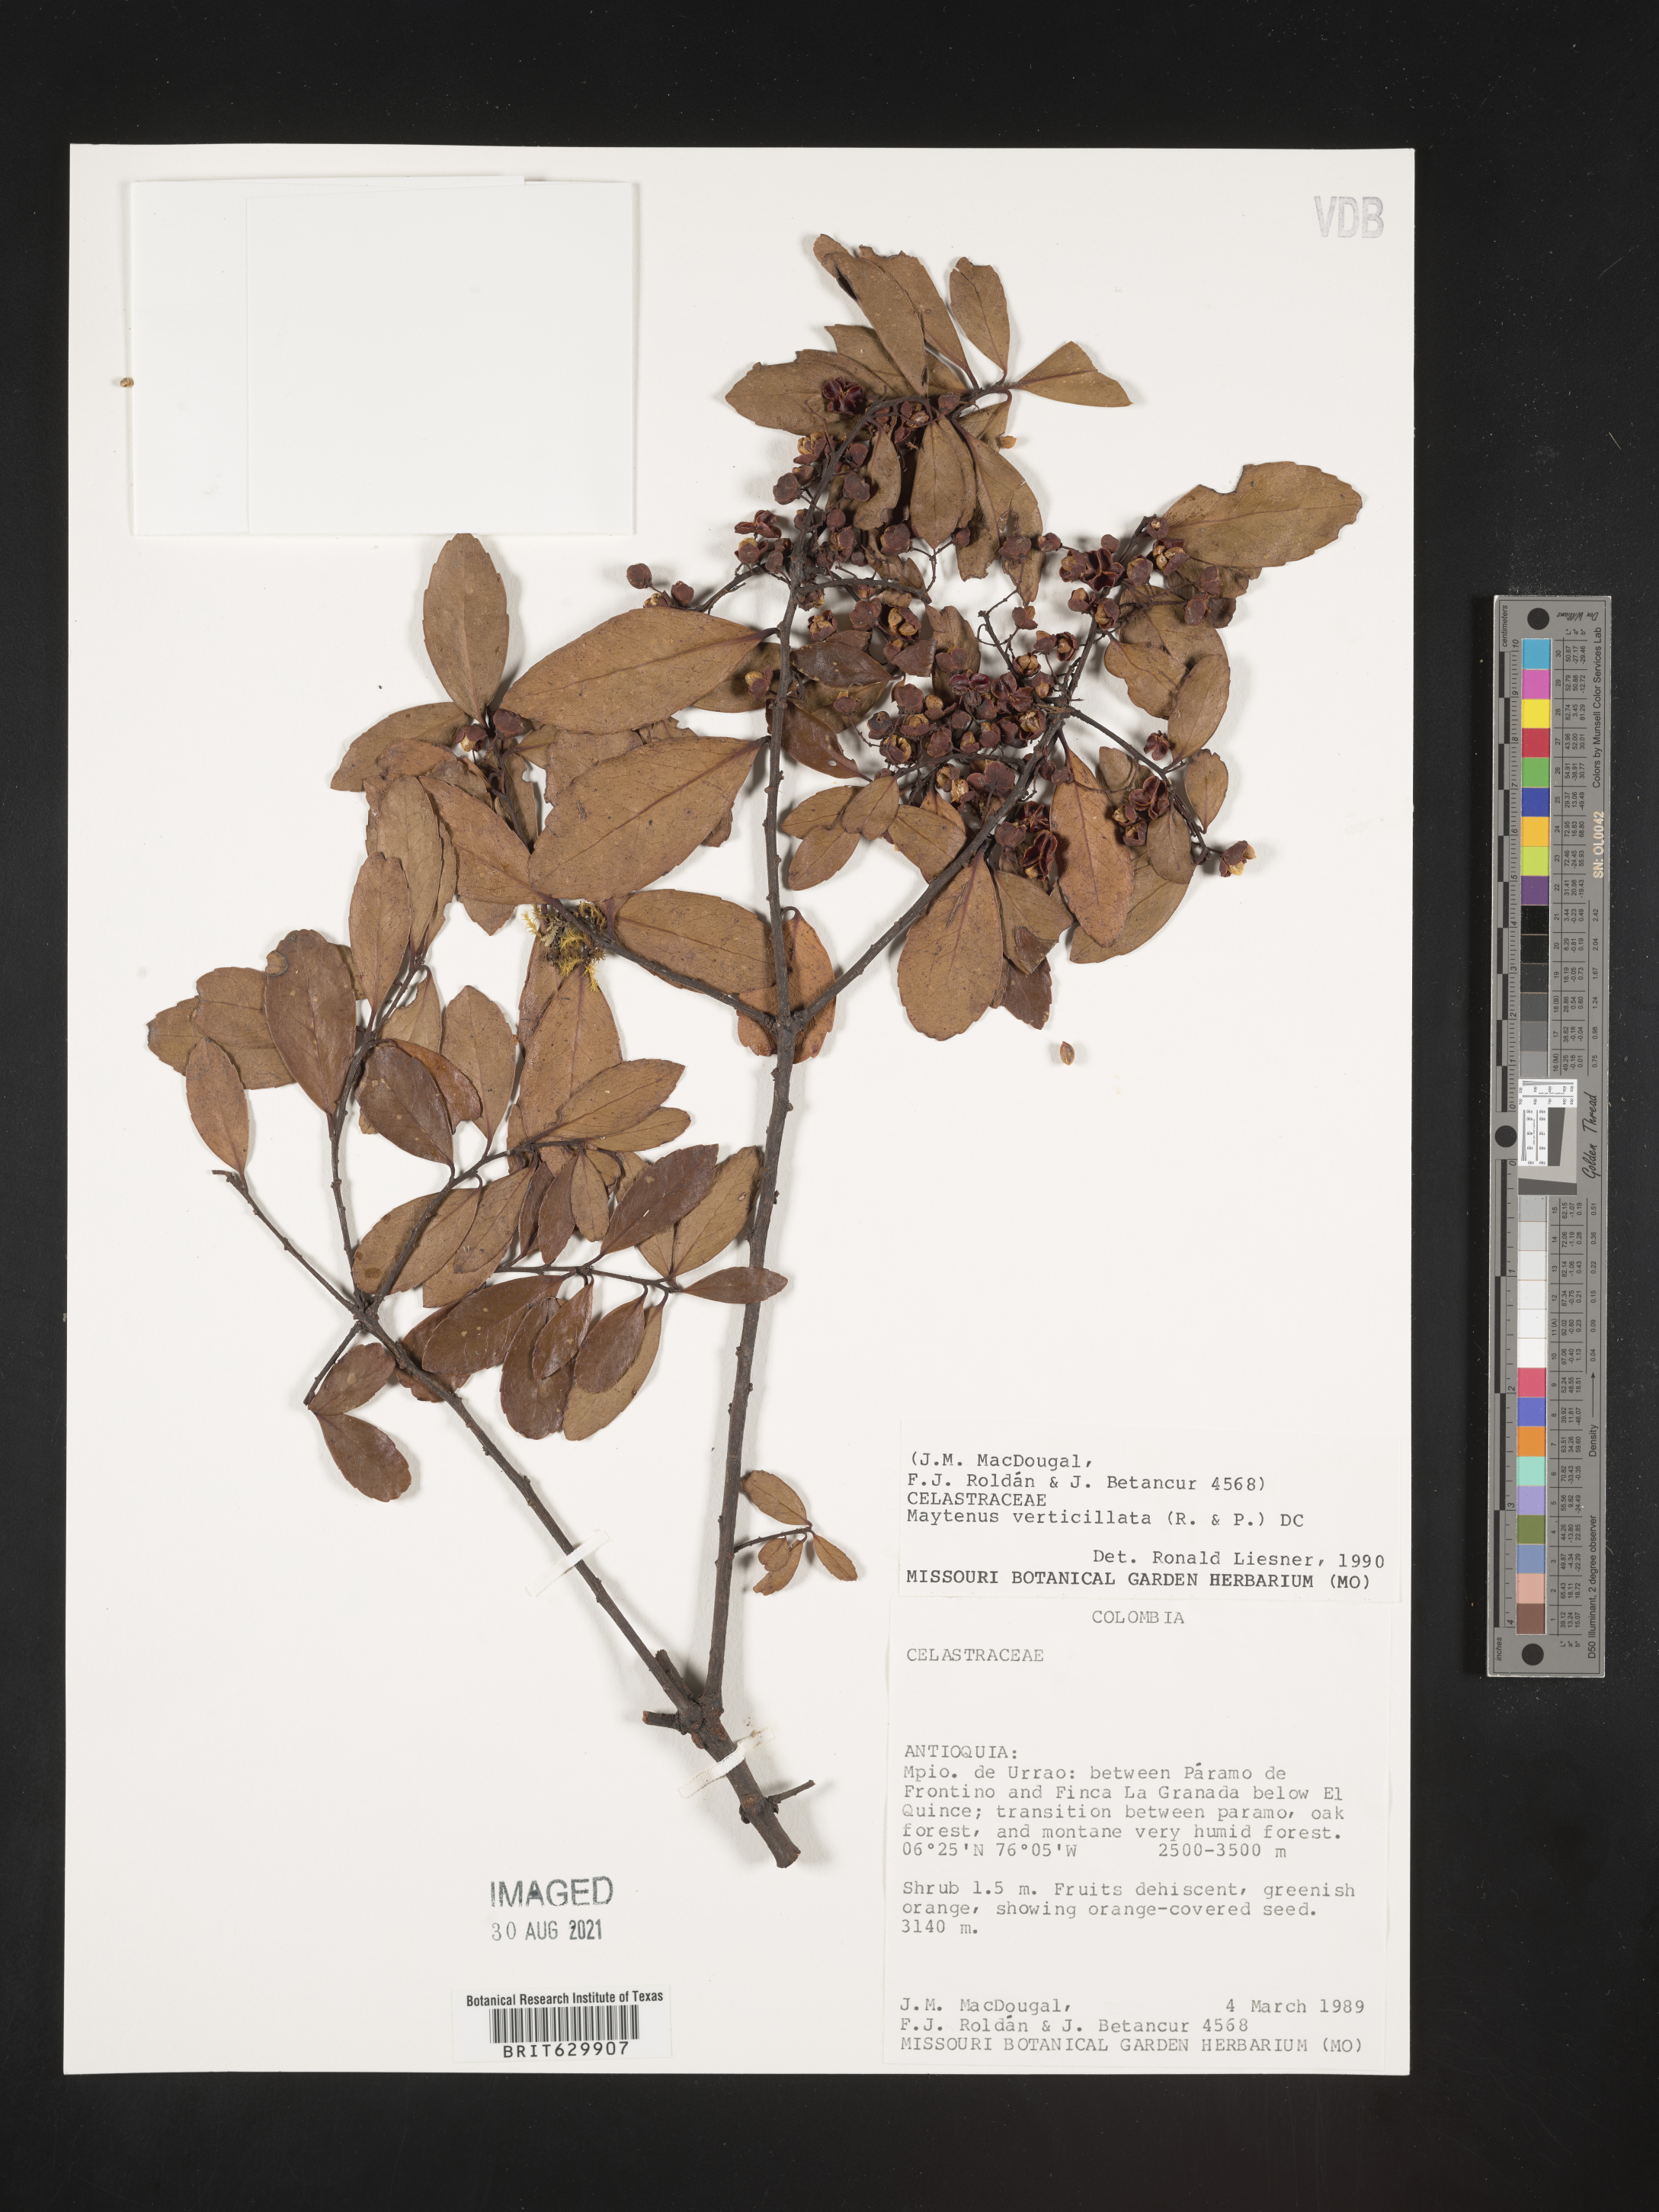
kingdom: Plantae
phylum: Tracheophyta
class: Magnoliopsida
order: Celastrales
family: Celastraceae
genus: Maytenus
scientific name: Maytenus verticillata
